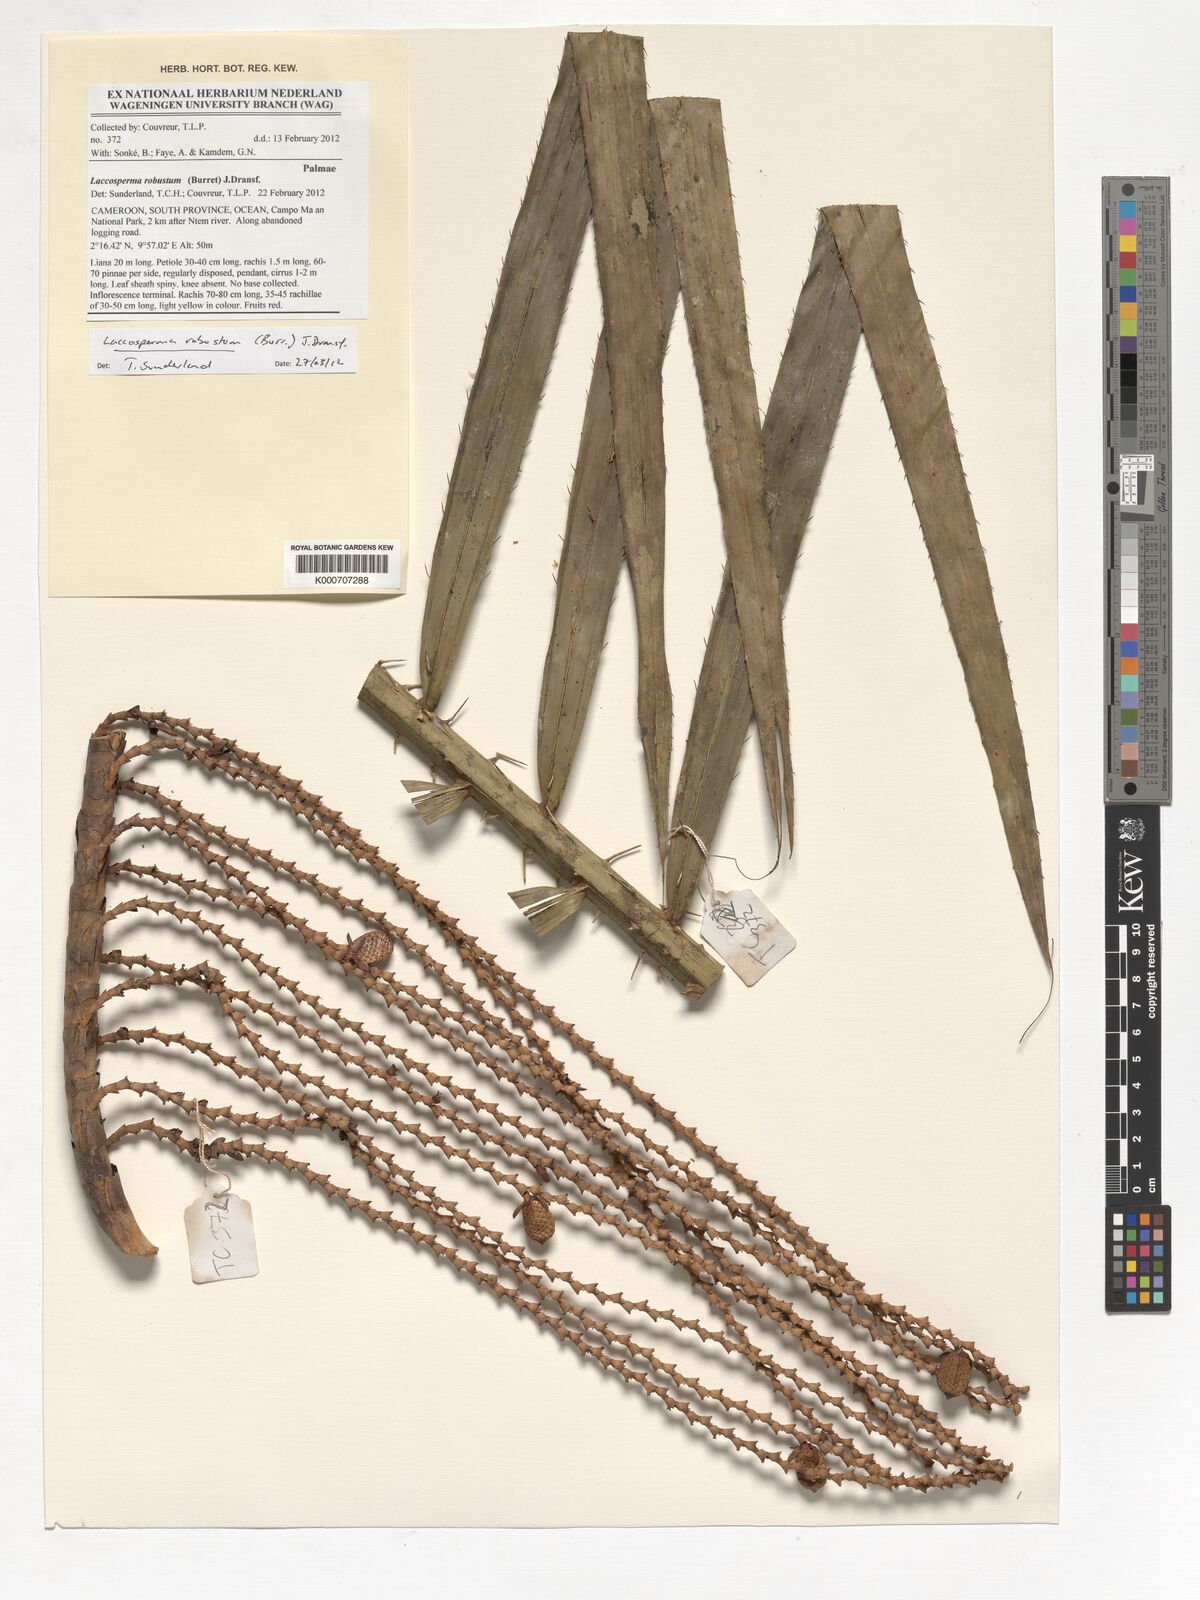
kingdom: Plantae
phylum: Tracheophyta
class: Liliopsida
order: Arecales
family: Arecaceae
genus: Laccosperma
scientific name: Laccosperma robustum
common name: Rattan
